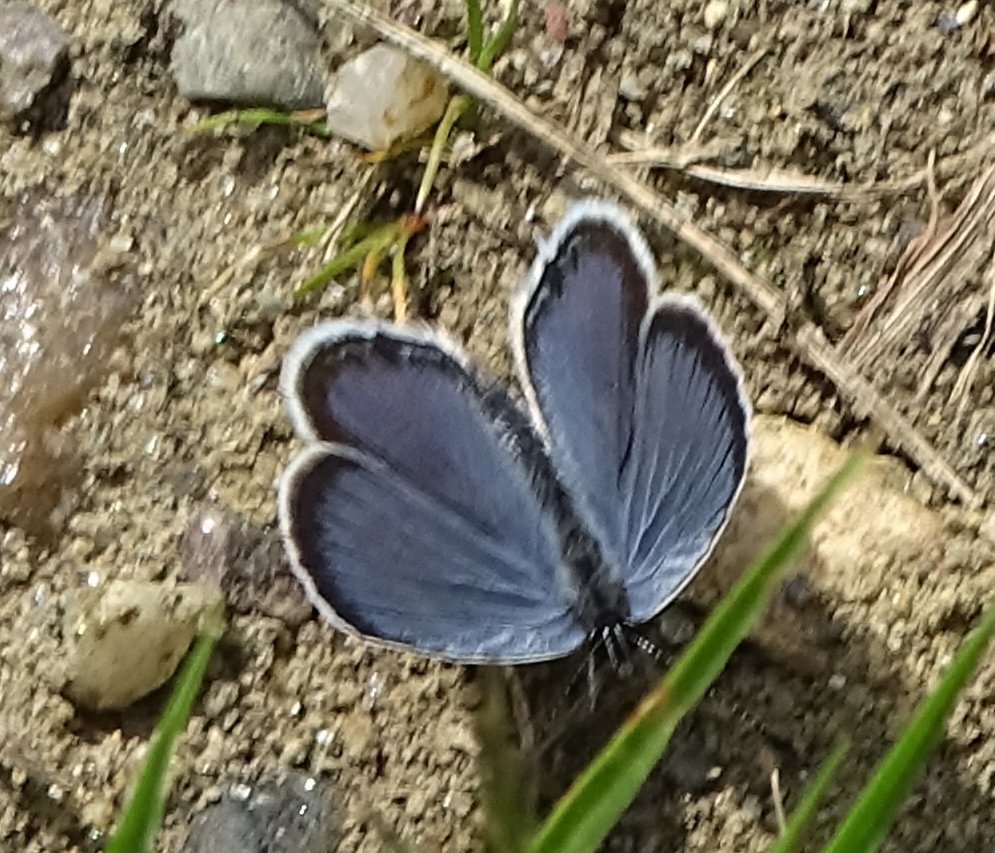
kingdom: Animalia
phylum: Arthropoda
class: Insecta
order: Lepidoptera
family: Lycaenidae
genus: Elkalyce
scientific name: Elkalyce comyntas
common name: Eastern Tailed-Blue
